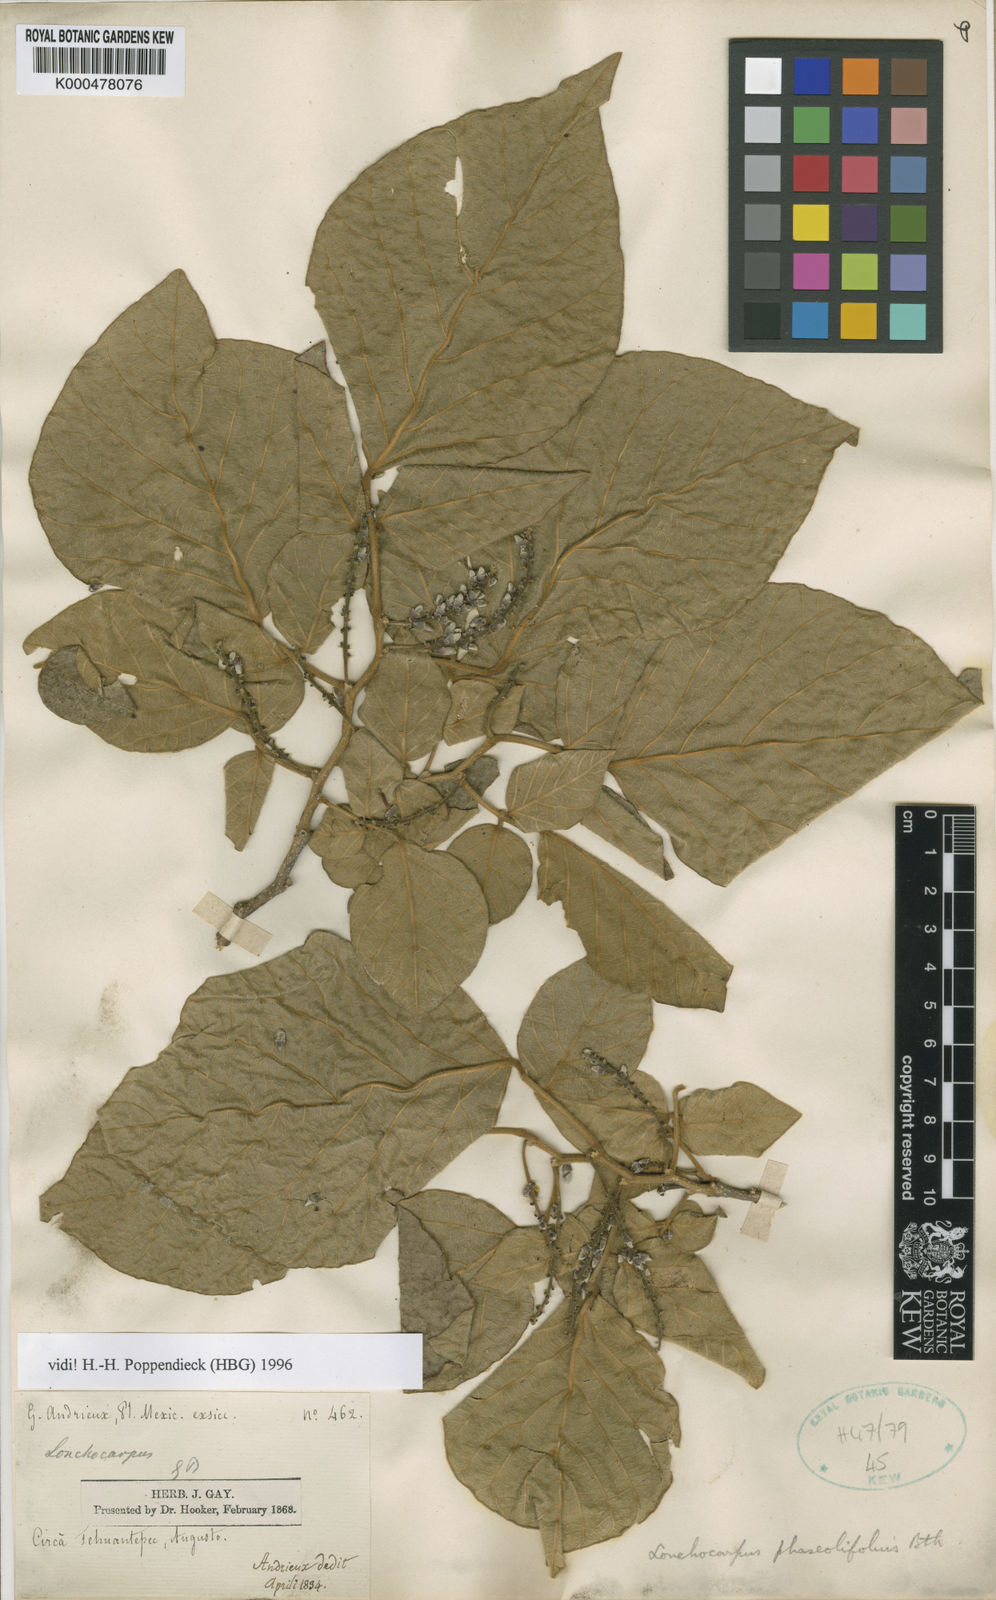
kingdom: Plantae
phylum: Tracheophyta
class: Magnoliopsida
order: Fabales
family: Fabaceae
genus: Lonchocarpus
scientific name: Lonchocarpus phaseolifolius
